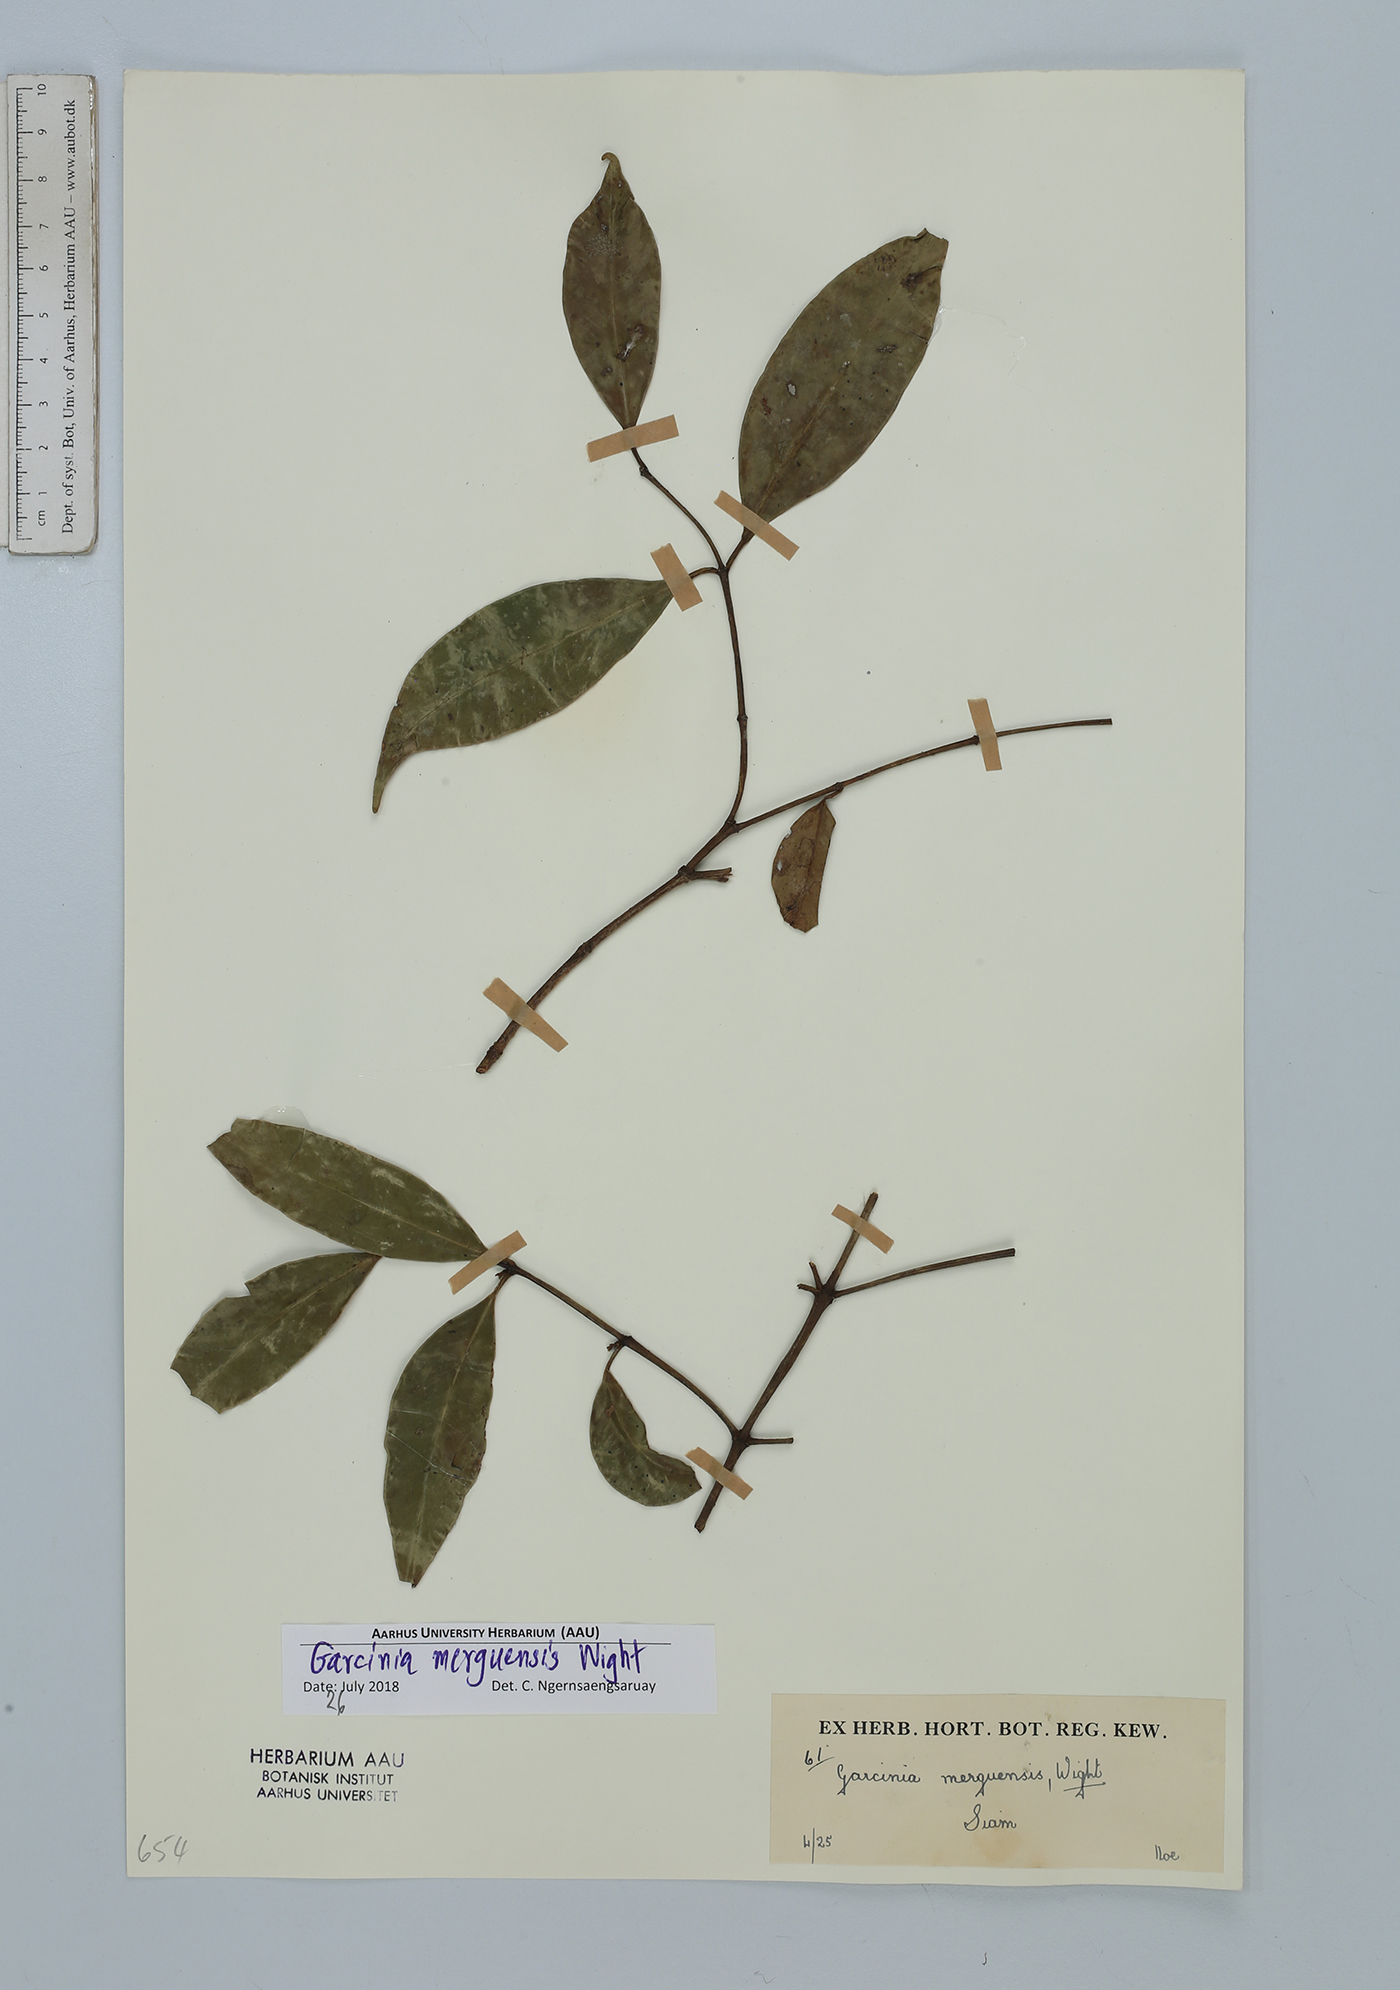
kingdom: Plantae
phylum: Tracheophyta
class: Magnoliopsida
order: Malpighiales
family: Clusiaceae
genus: Garcinia
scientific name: Garcinia merguensis
